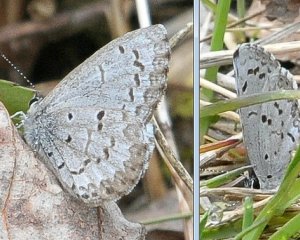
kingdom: Animalia
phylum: Arthropoda
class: Insecta
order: Lepidoptera
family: Lycaenidae
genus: Celastrina
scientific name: Celastrina lucia
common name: Northern Spring Azure
